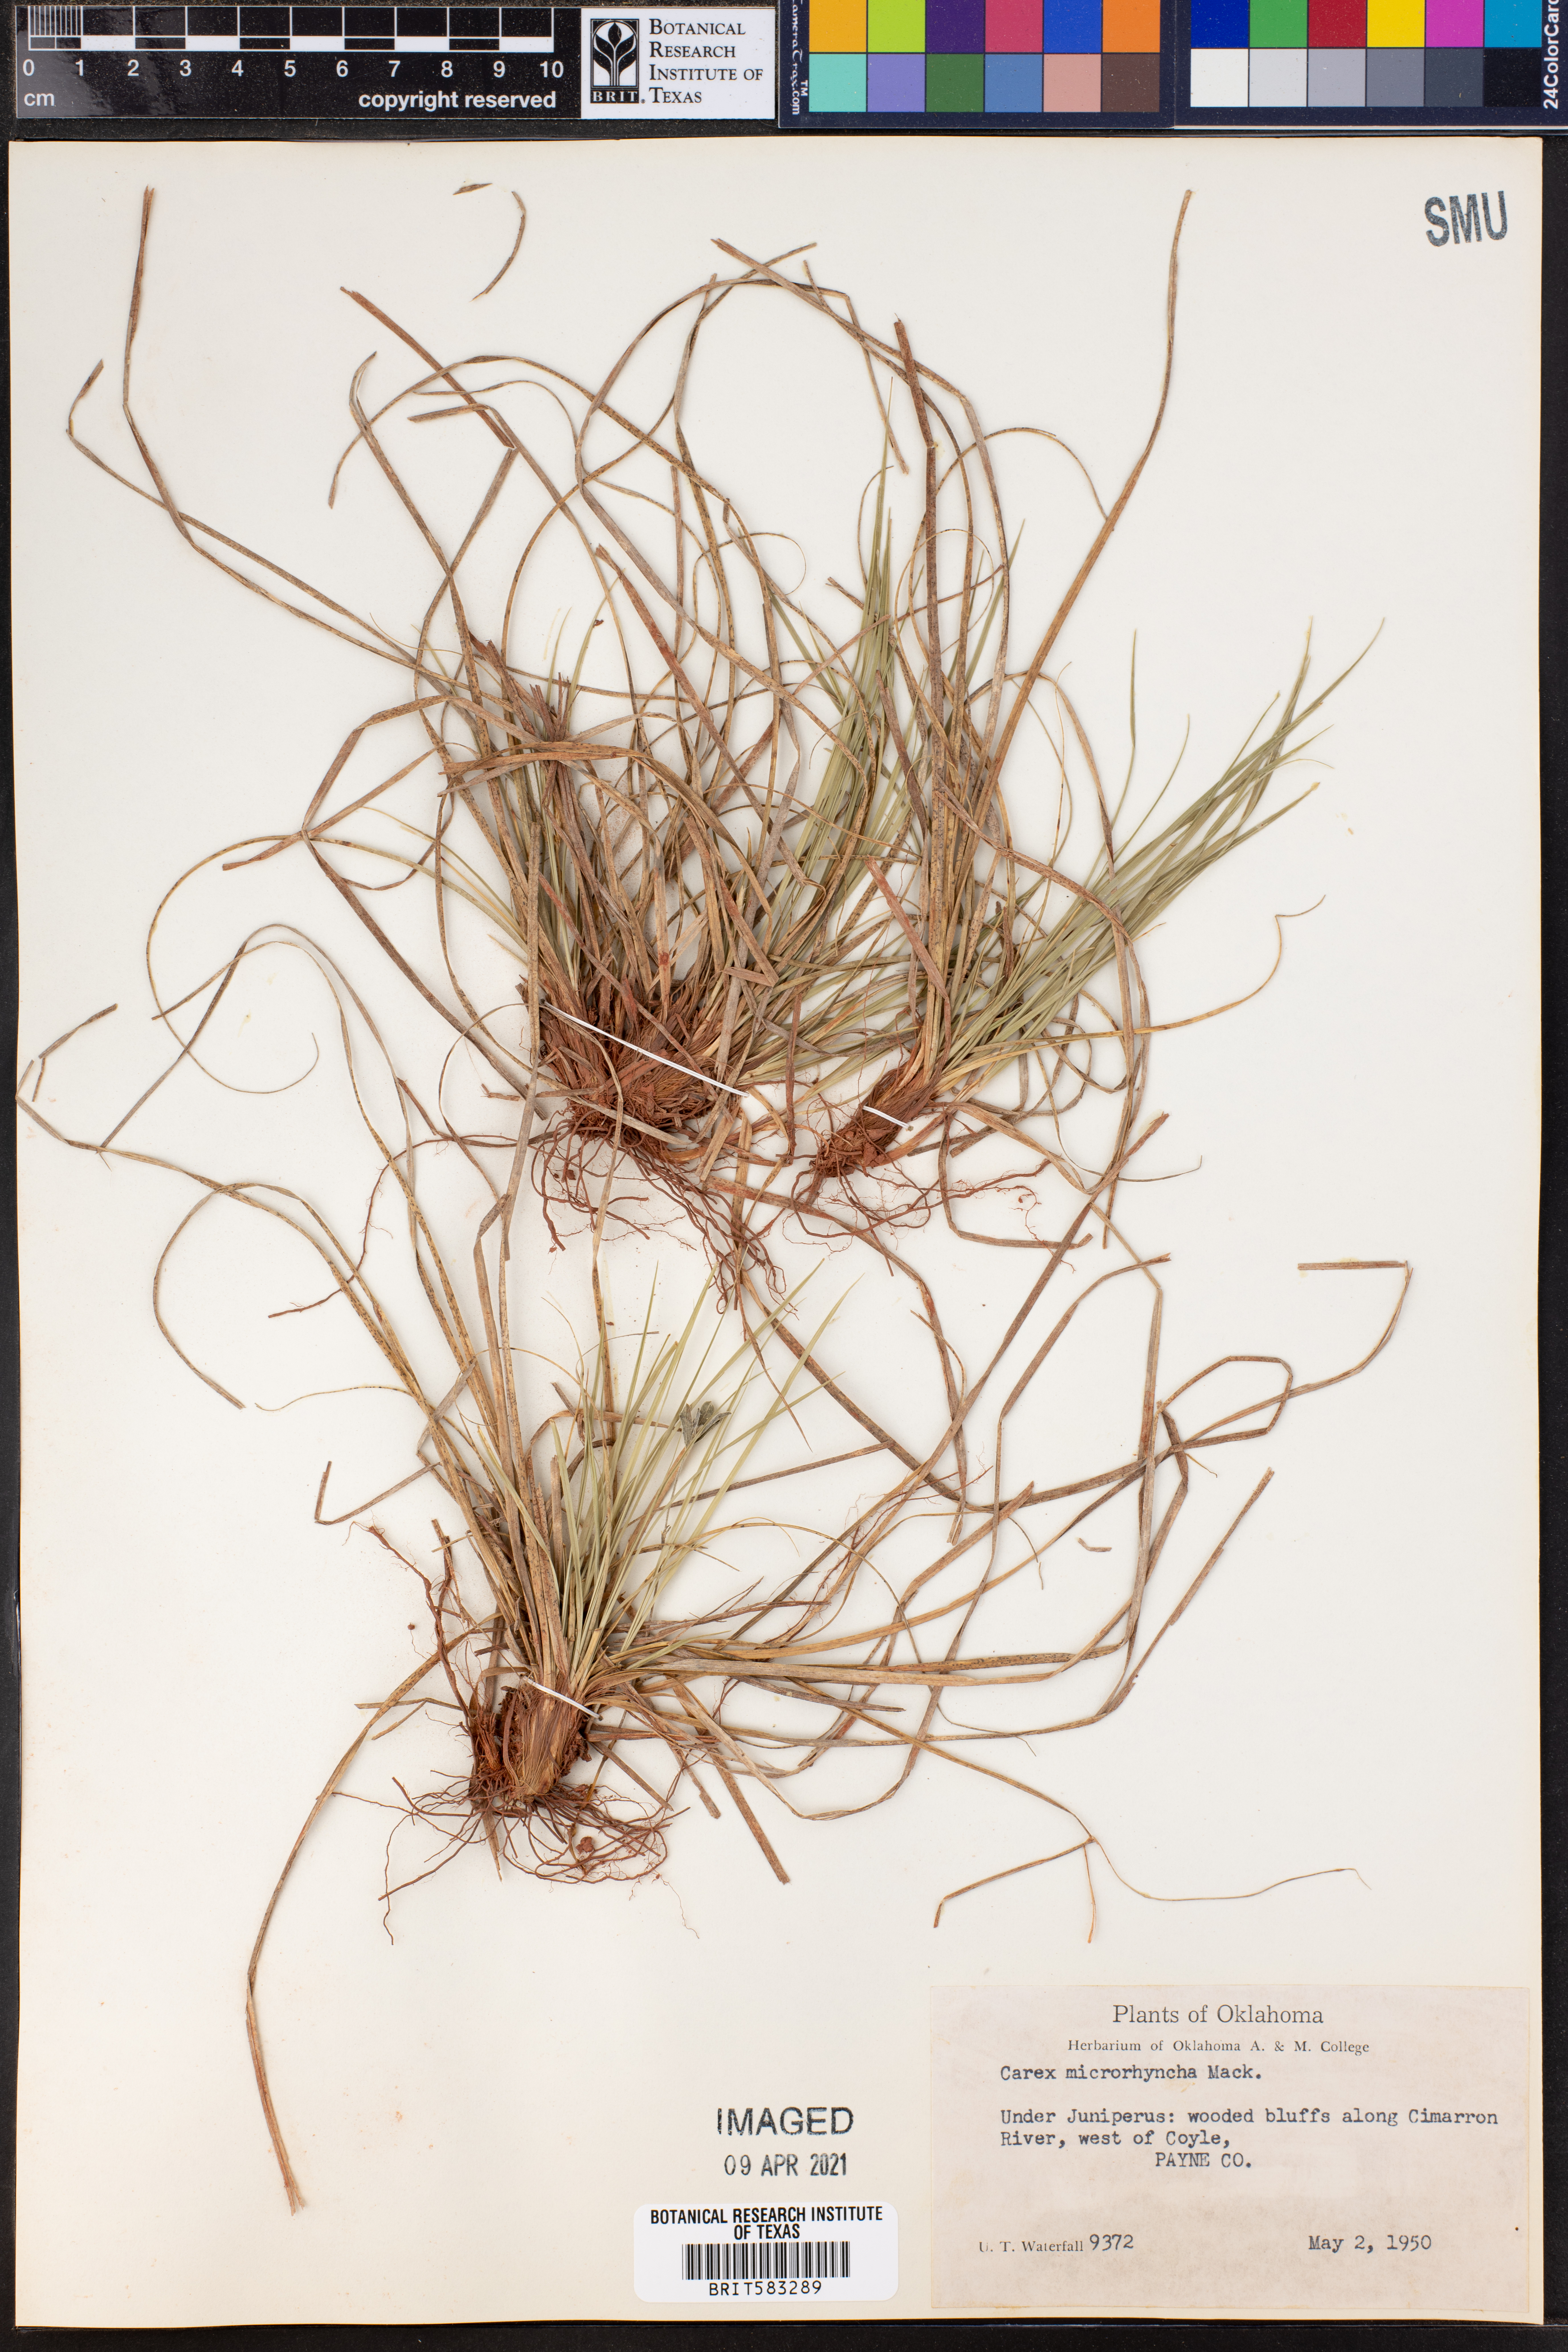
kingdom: Plantae
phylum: Tracheophyta
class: Liliopsida
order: Poales
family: Cyperaceae
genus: Carex
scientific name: Carex microrhyncha
